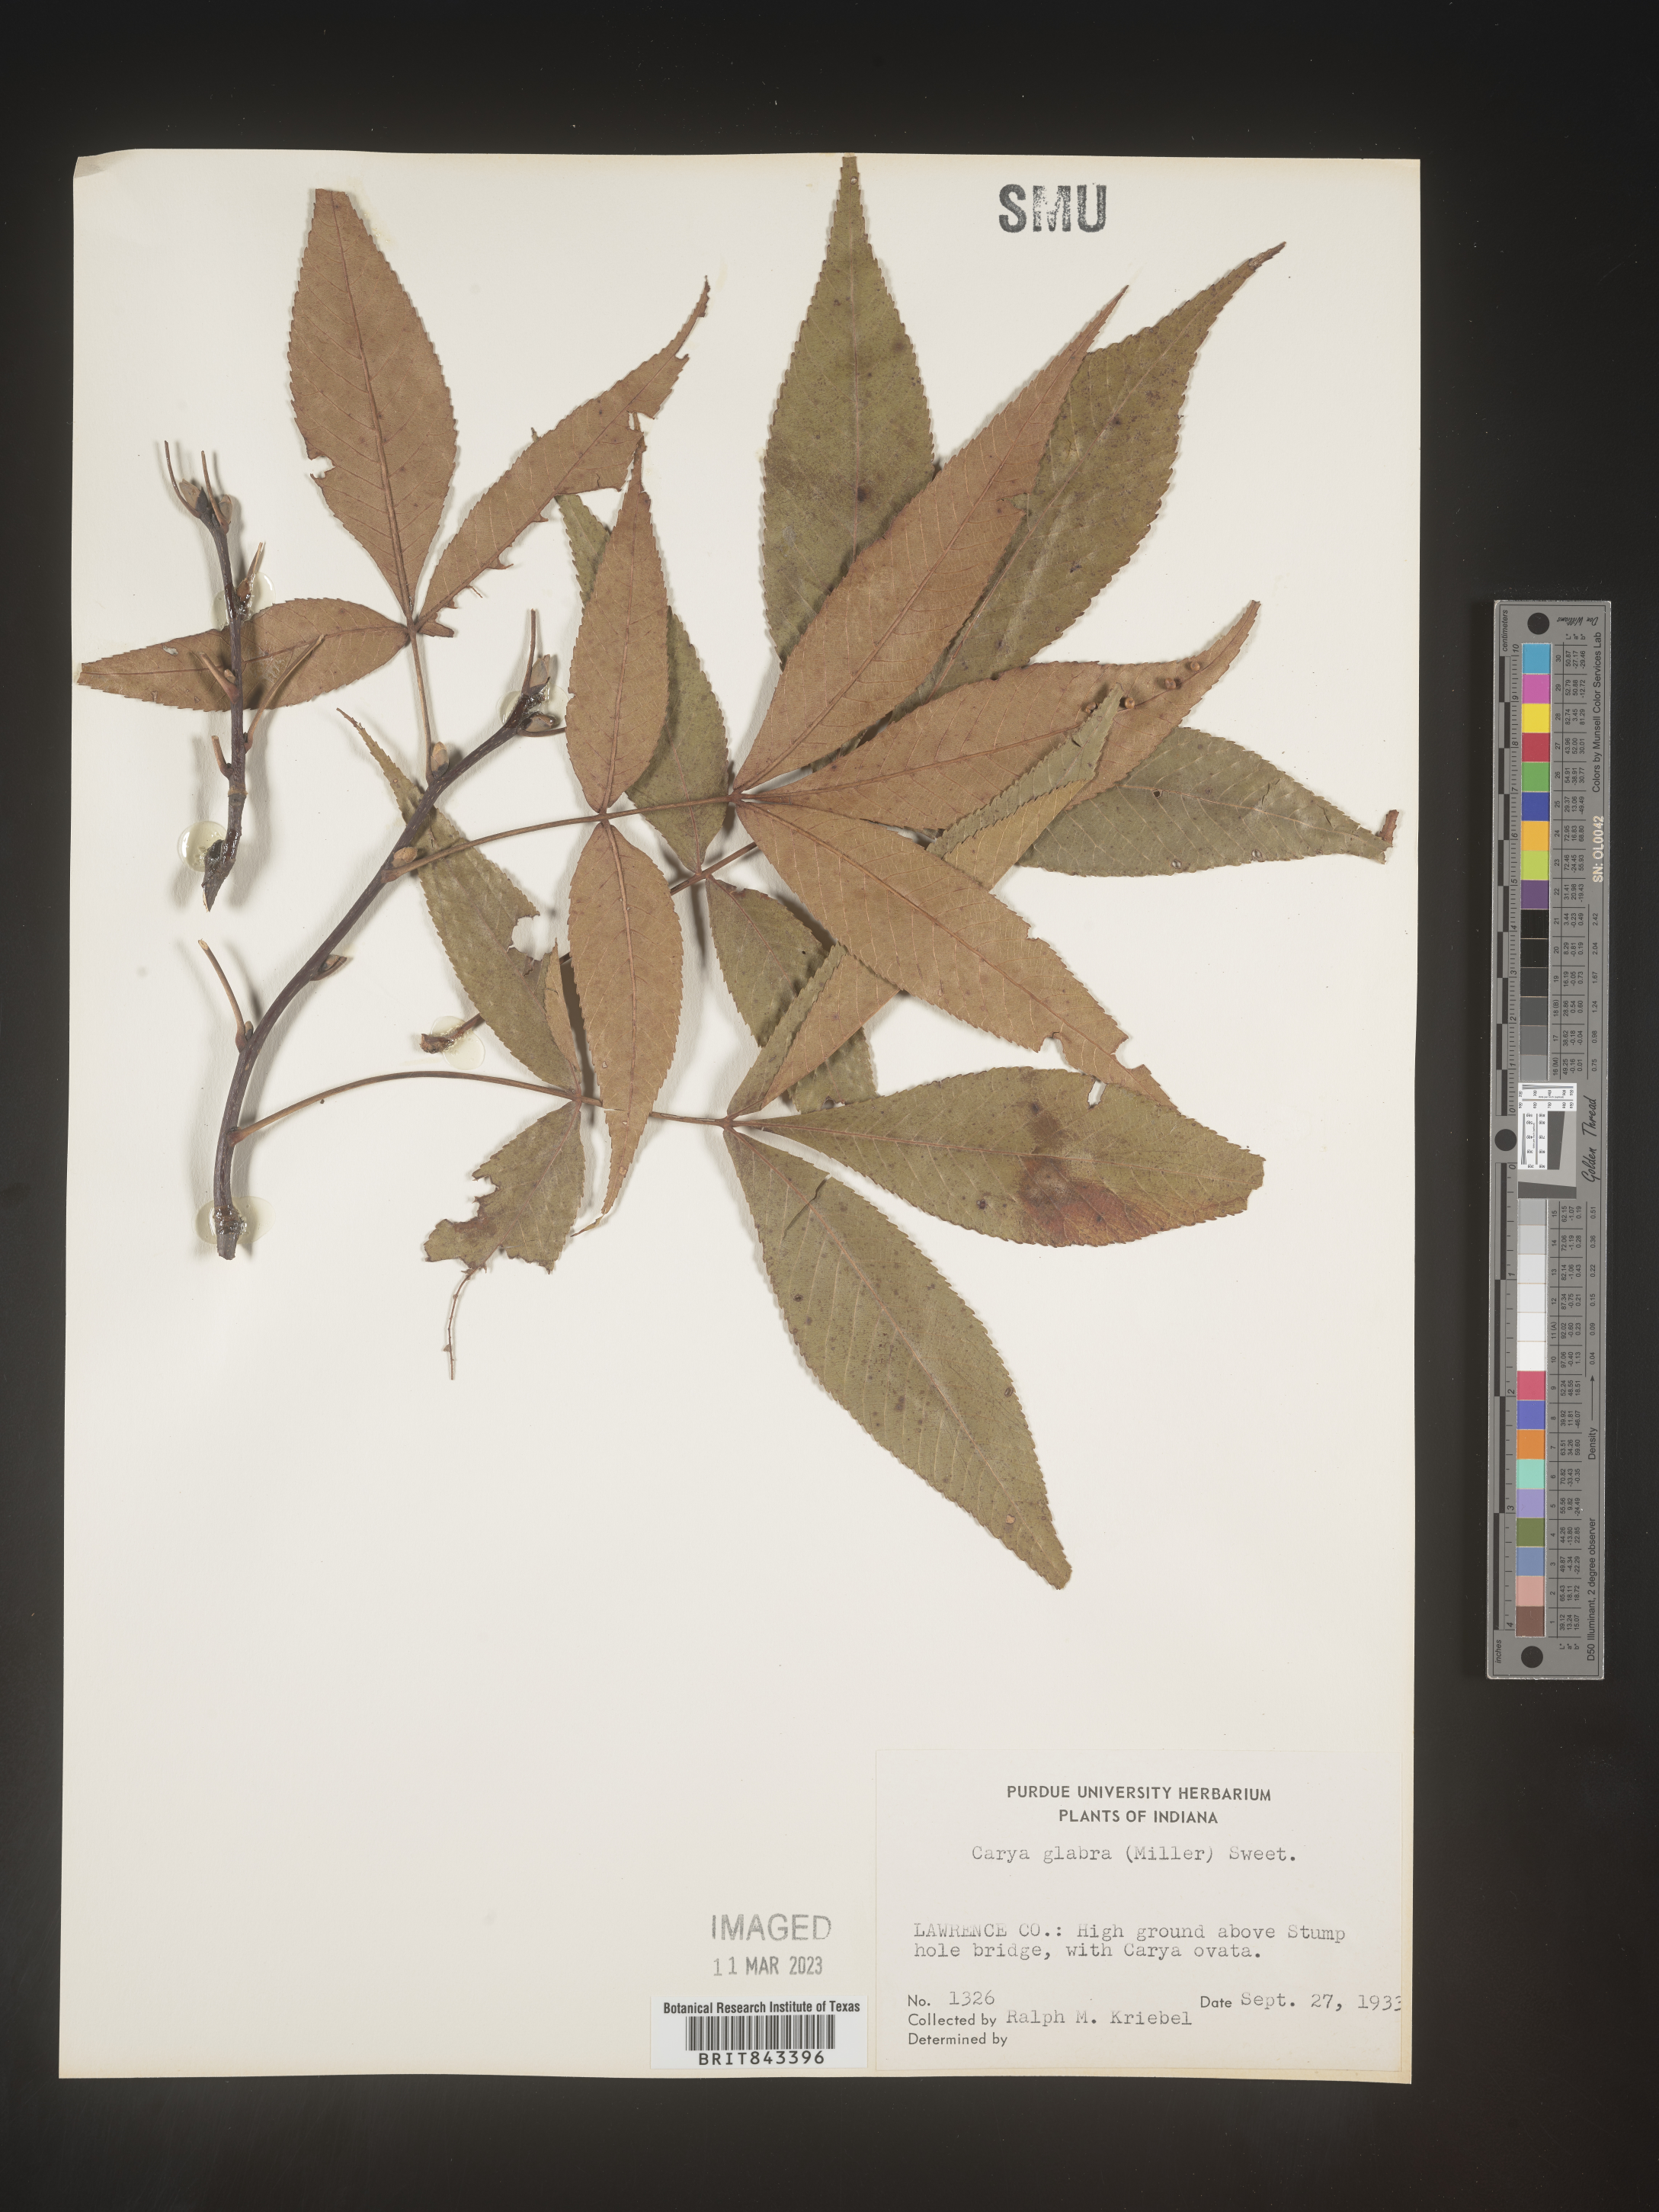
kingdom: Plantae
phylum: Tracheophyta
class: Magnoliopsida
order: Fagales
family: Juglandaceae
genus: Carya
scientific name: Carya glabra
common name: Pignut hickory
